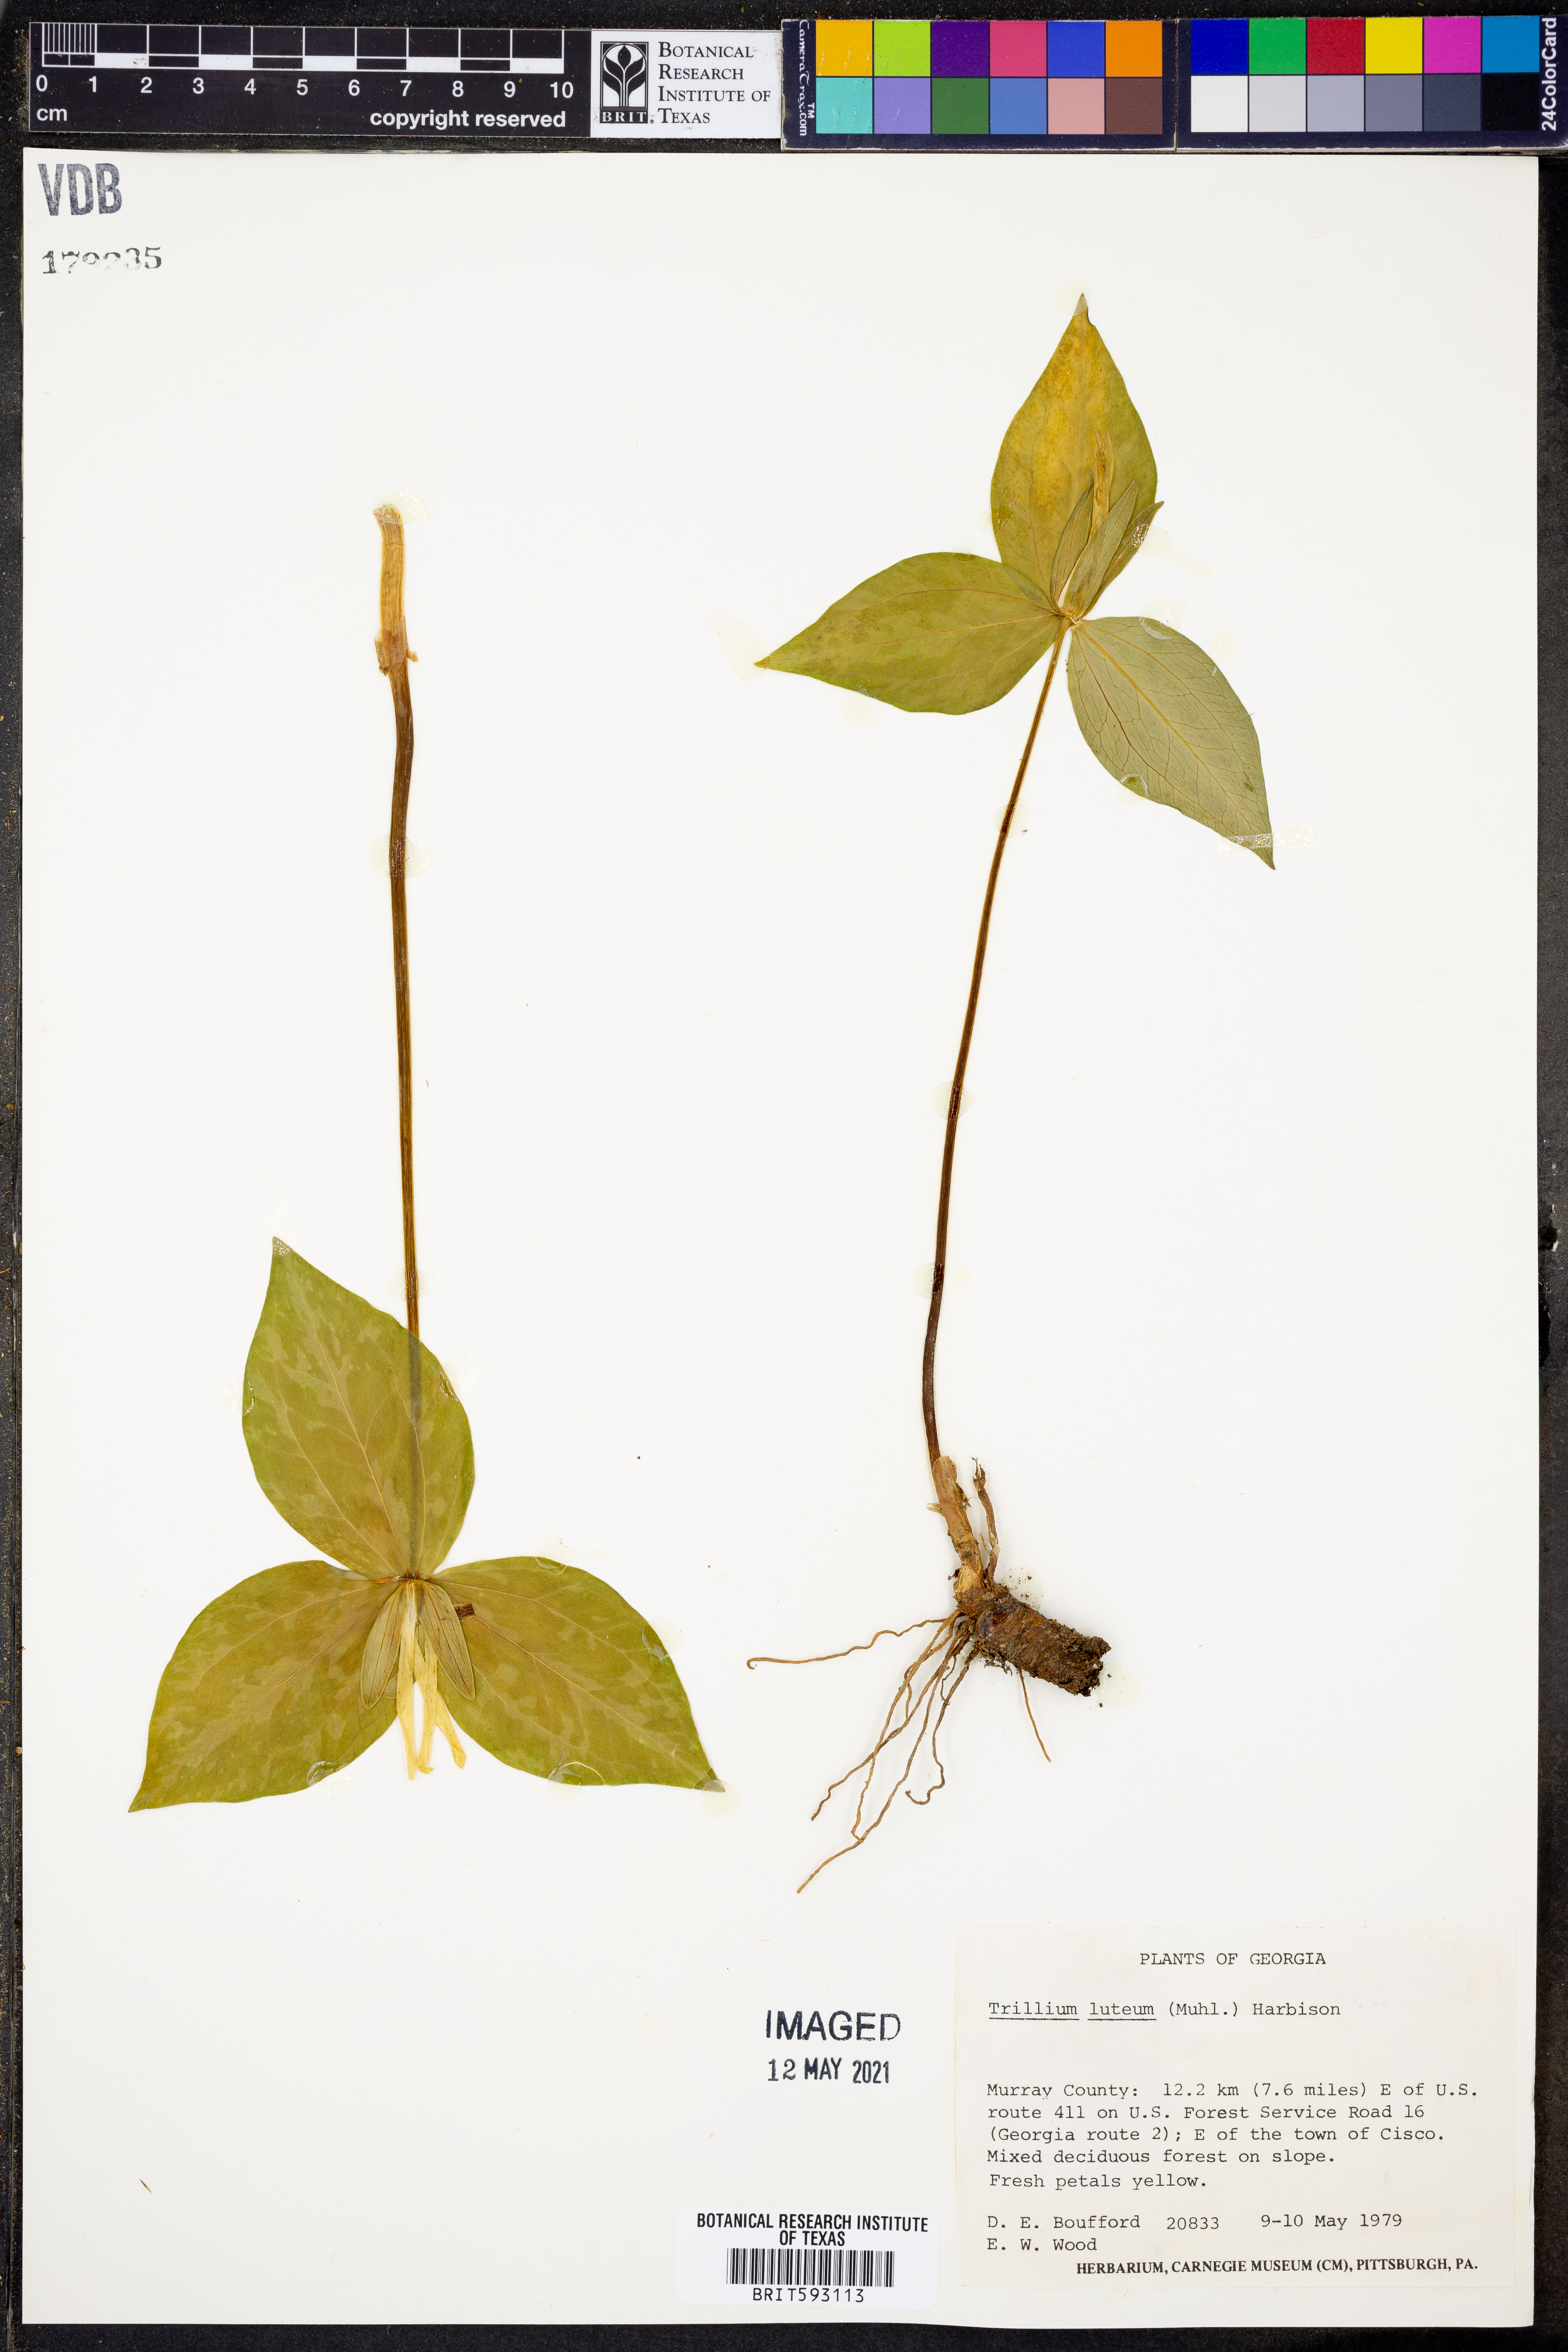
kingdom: Plantae
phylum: Tracheophyta
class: Liliopsida
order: Liliales
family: Melanthiaceae
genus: Trillium
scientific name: Trillium luteum
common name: Wax trillium
